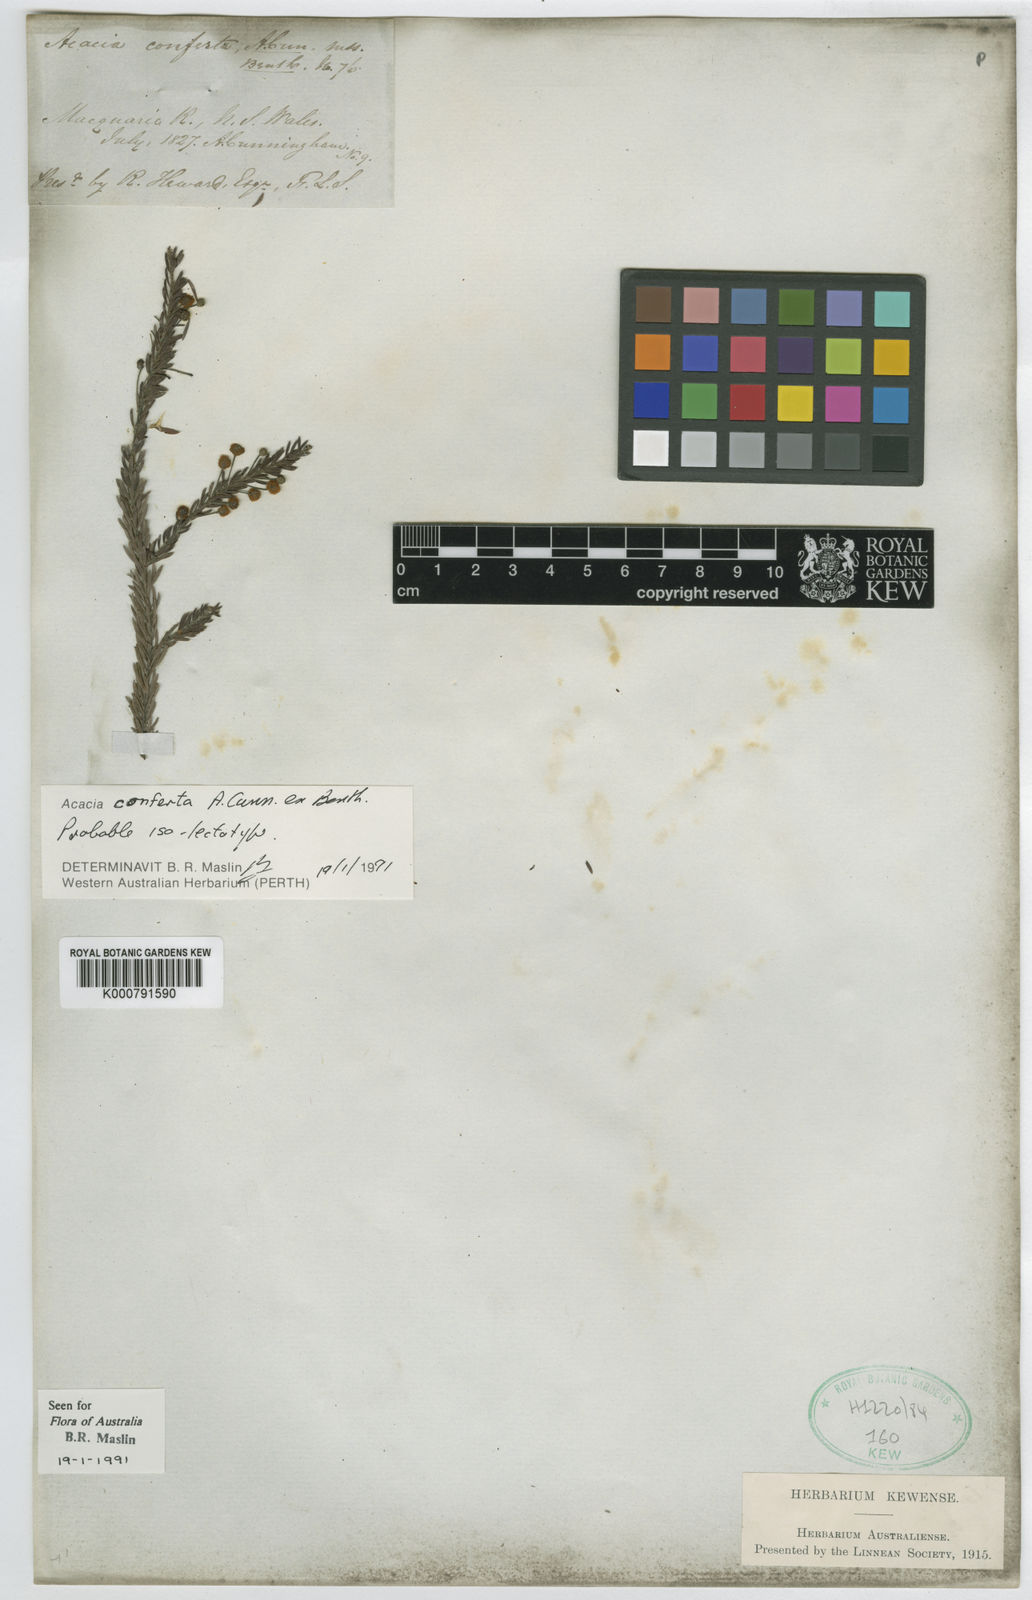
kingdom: Plantae
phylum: Tracheophyta
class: Magnoliopsida
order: Fabales
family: Fabaceae
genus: Acacia
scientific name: Acacia conferta
